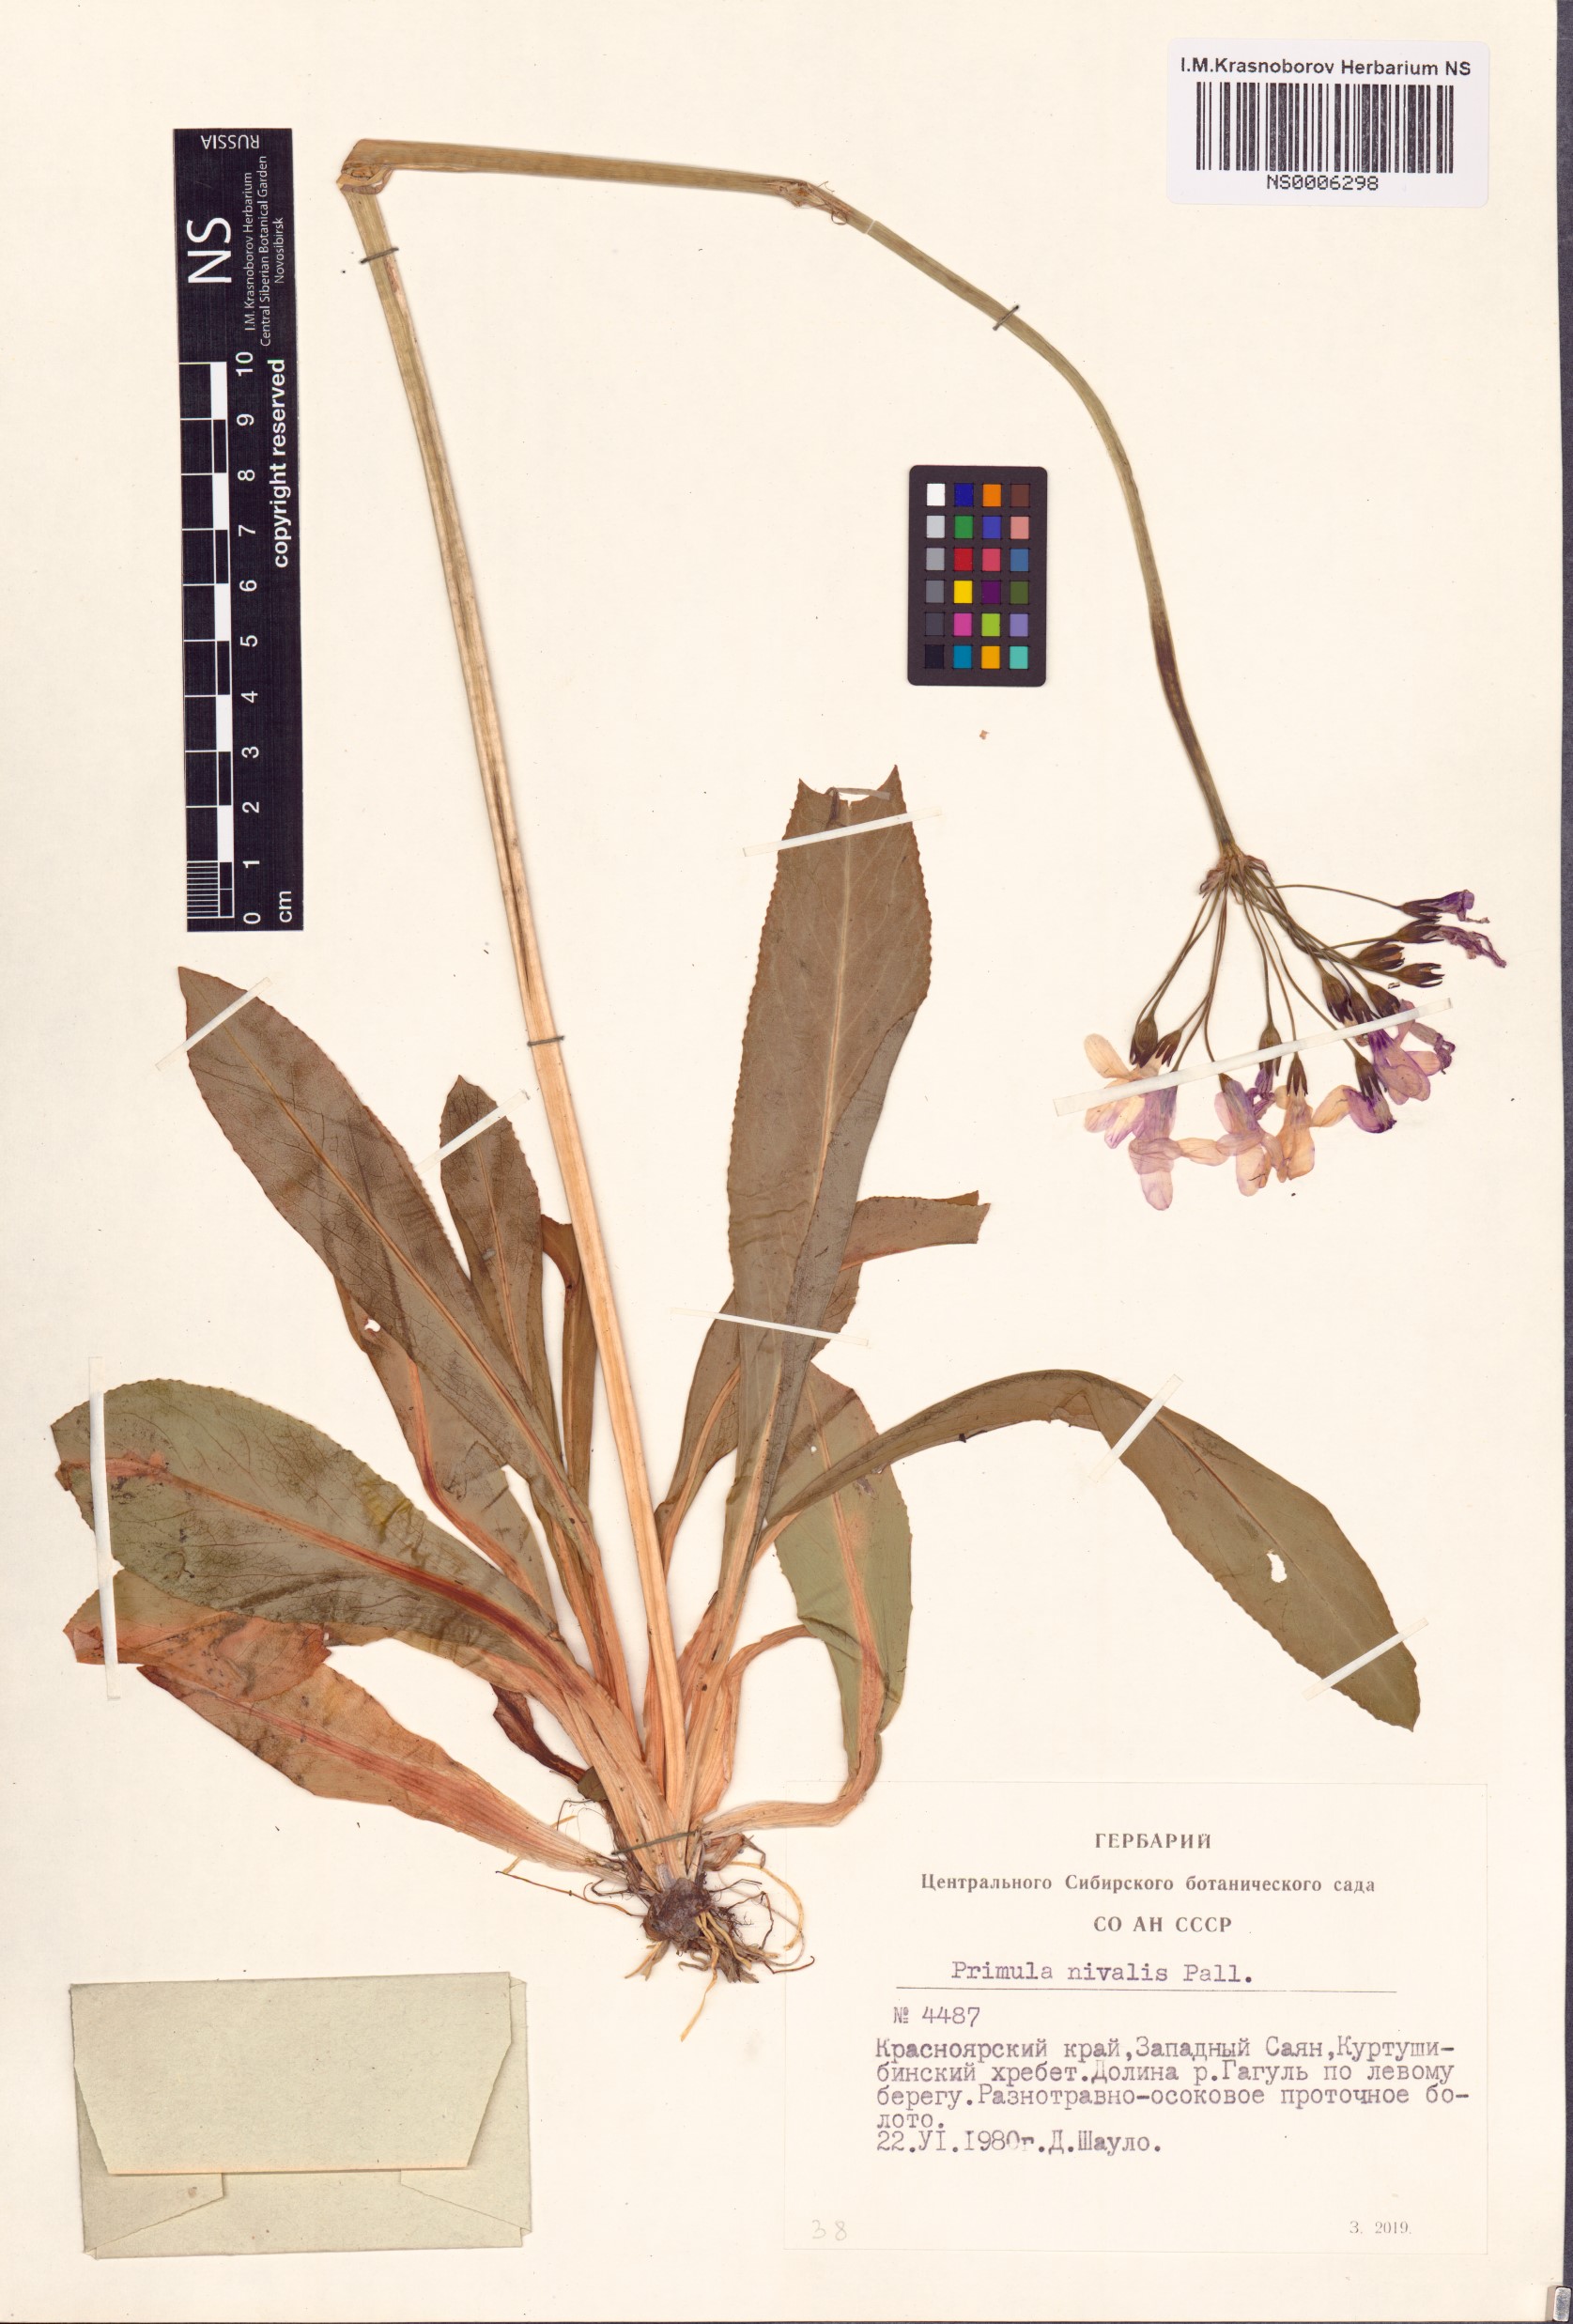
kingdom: Plantae
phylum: Tracheophyta
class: Magnoliopsida
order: Ericales
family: Primulaceae
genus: Primula
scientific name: Primula nivalis
